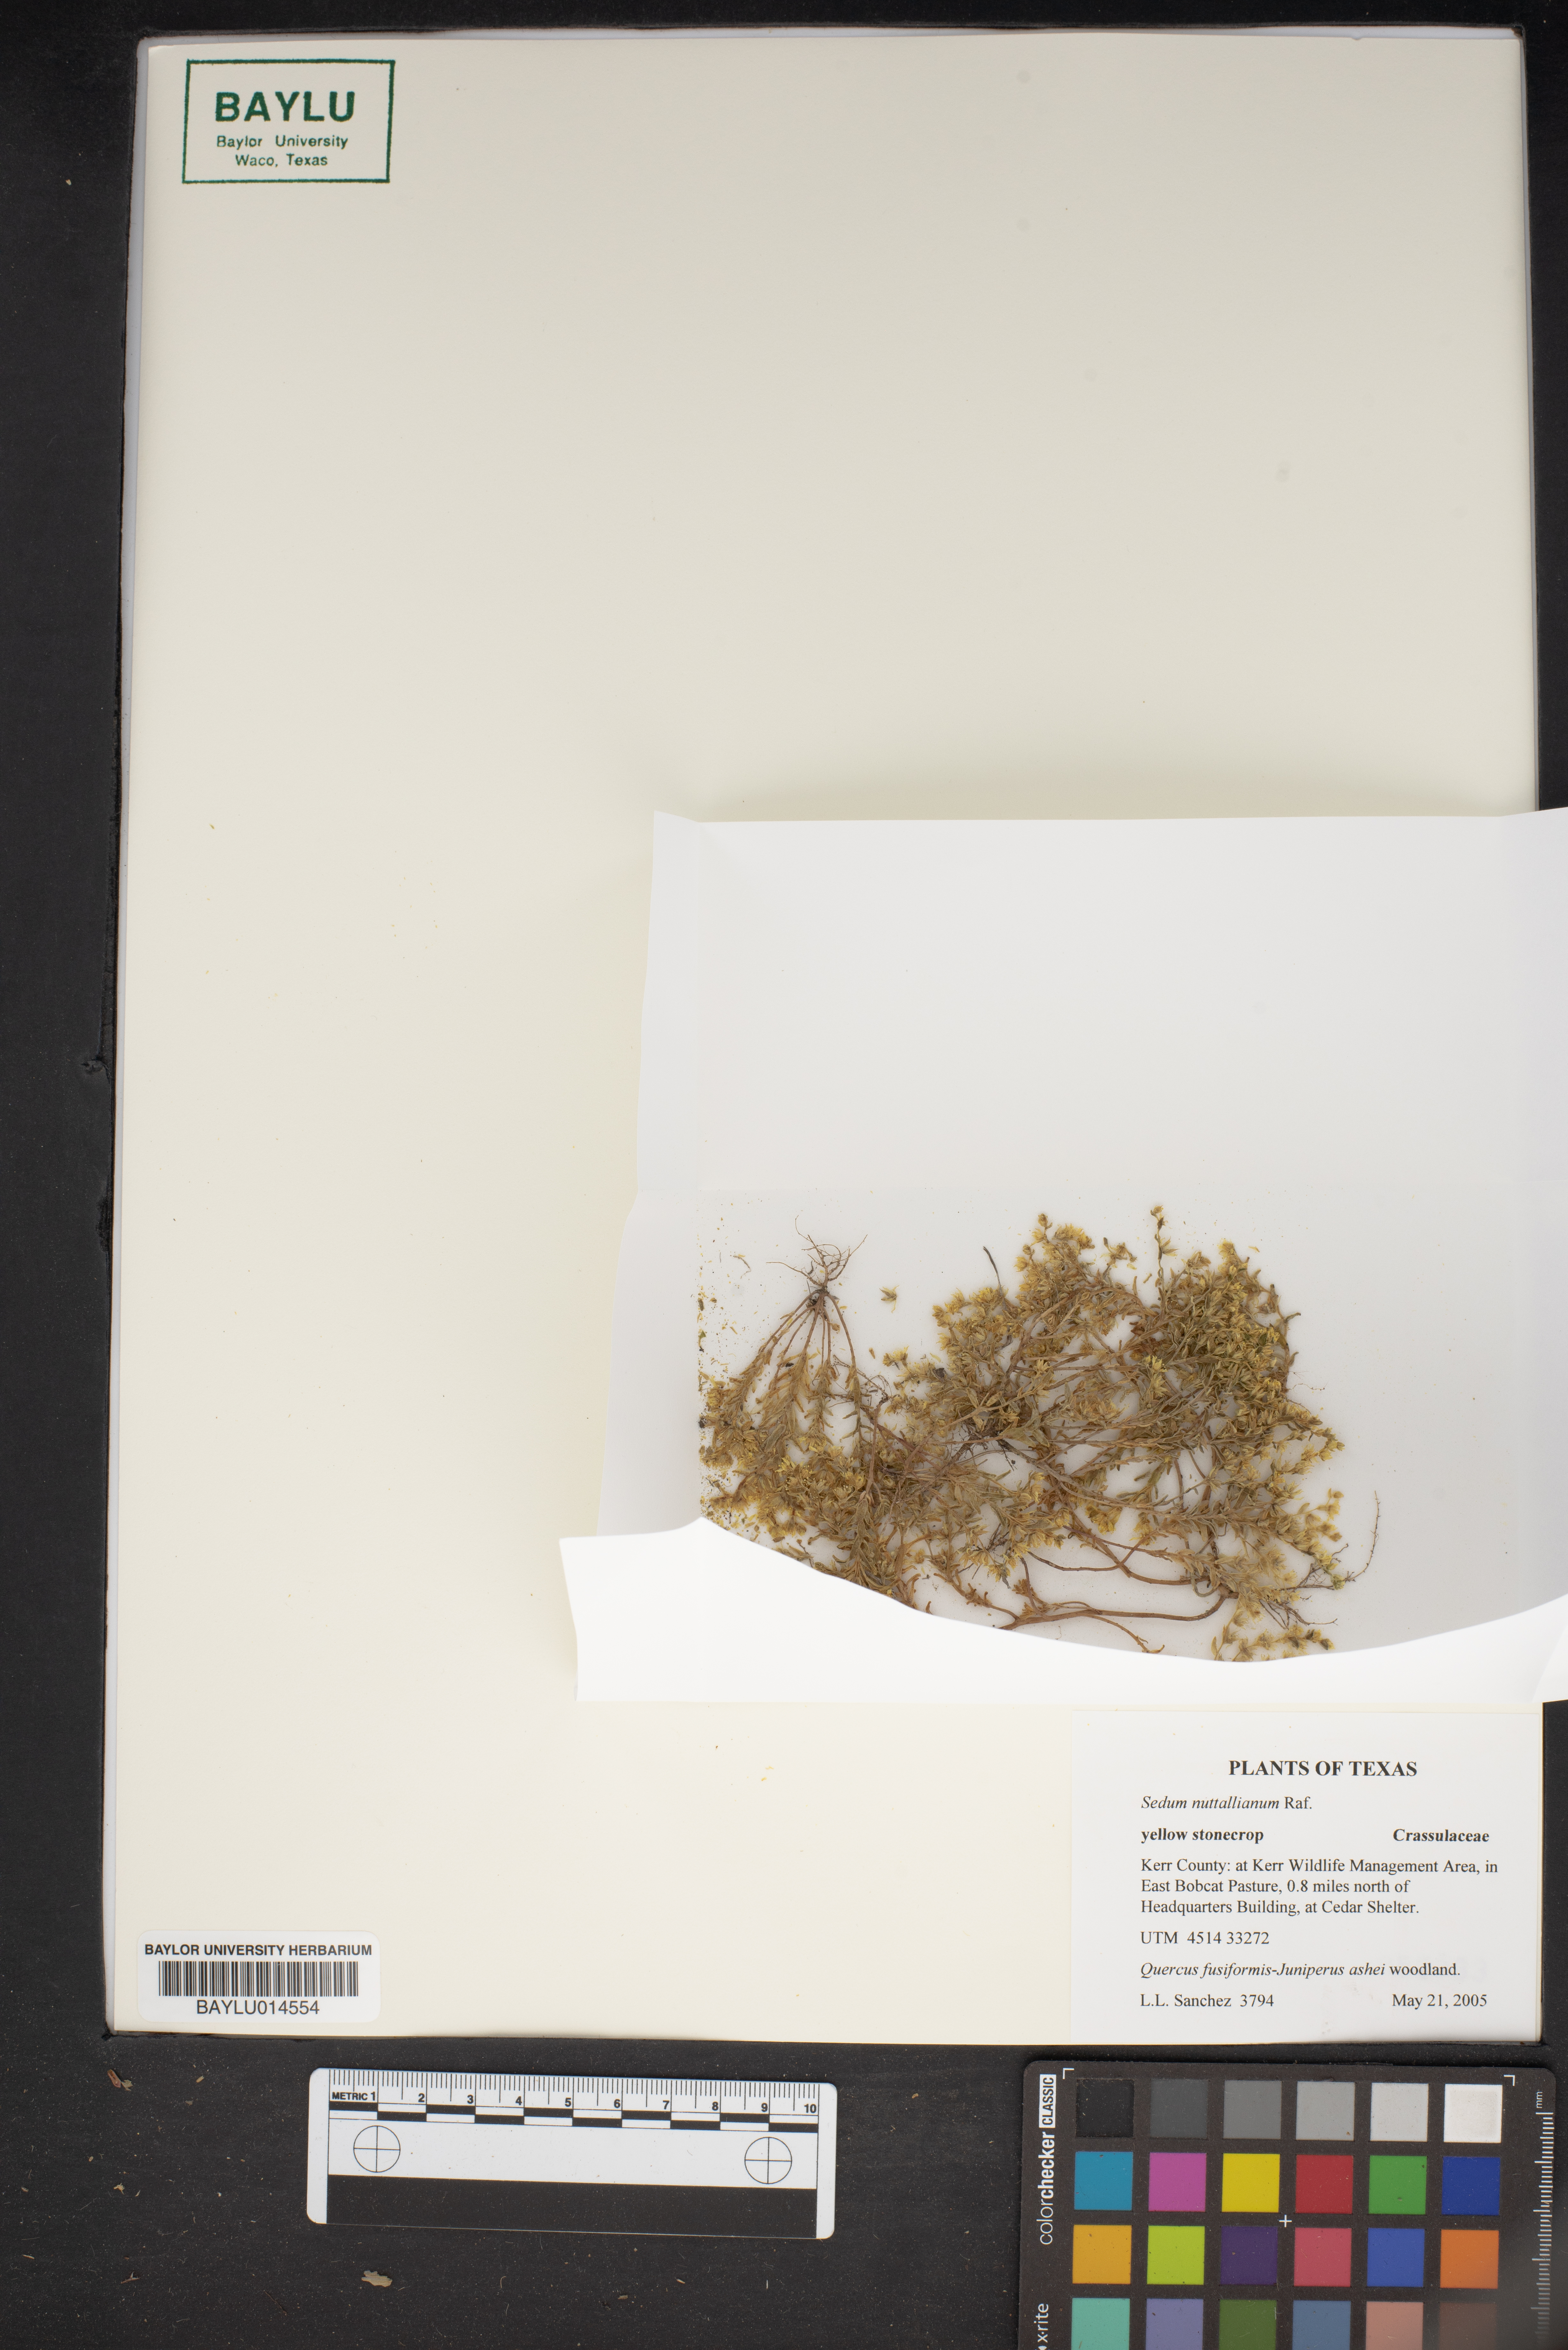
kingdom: Plantae
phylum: Tracheophyta
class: Magnoliopsida
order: Saxifragales
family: Crassulaceae
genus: Sedum
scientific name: Sedum nuttallii
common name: Yellow stonecrop
